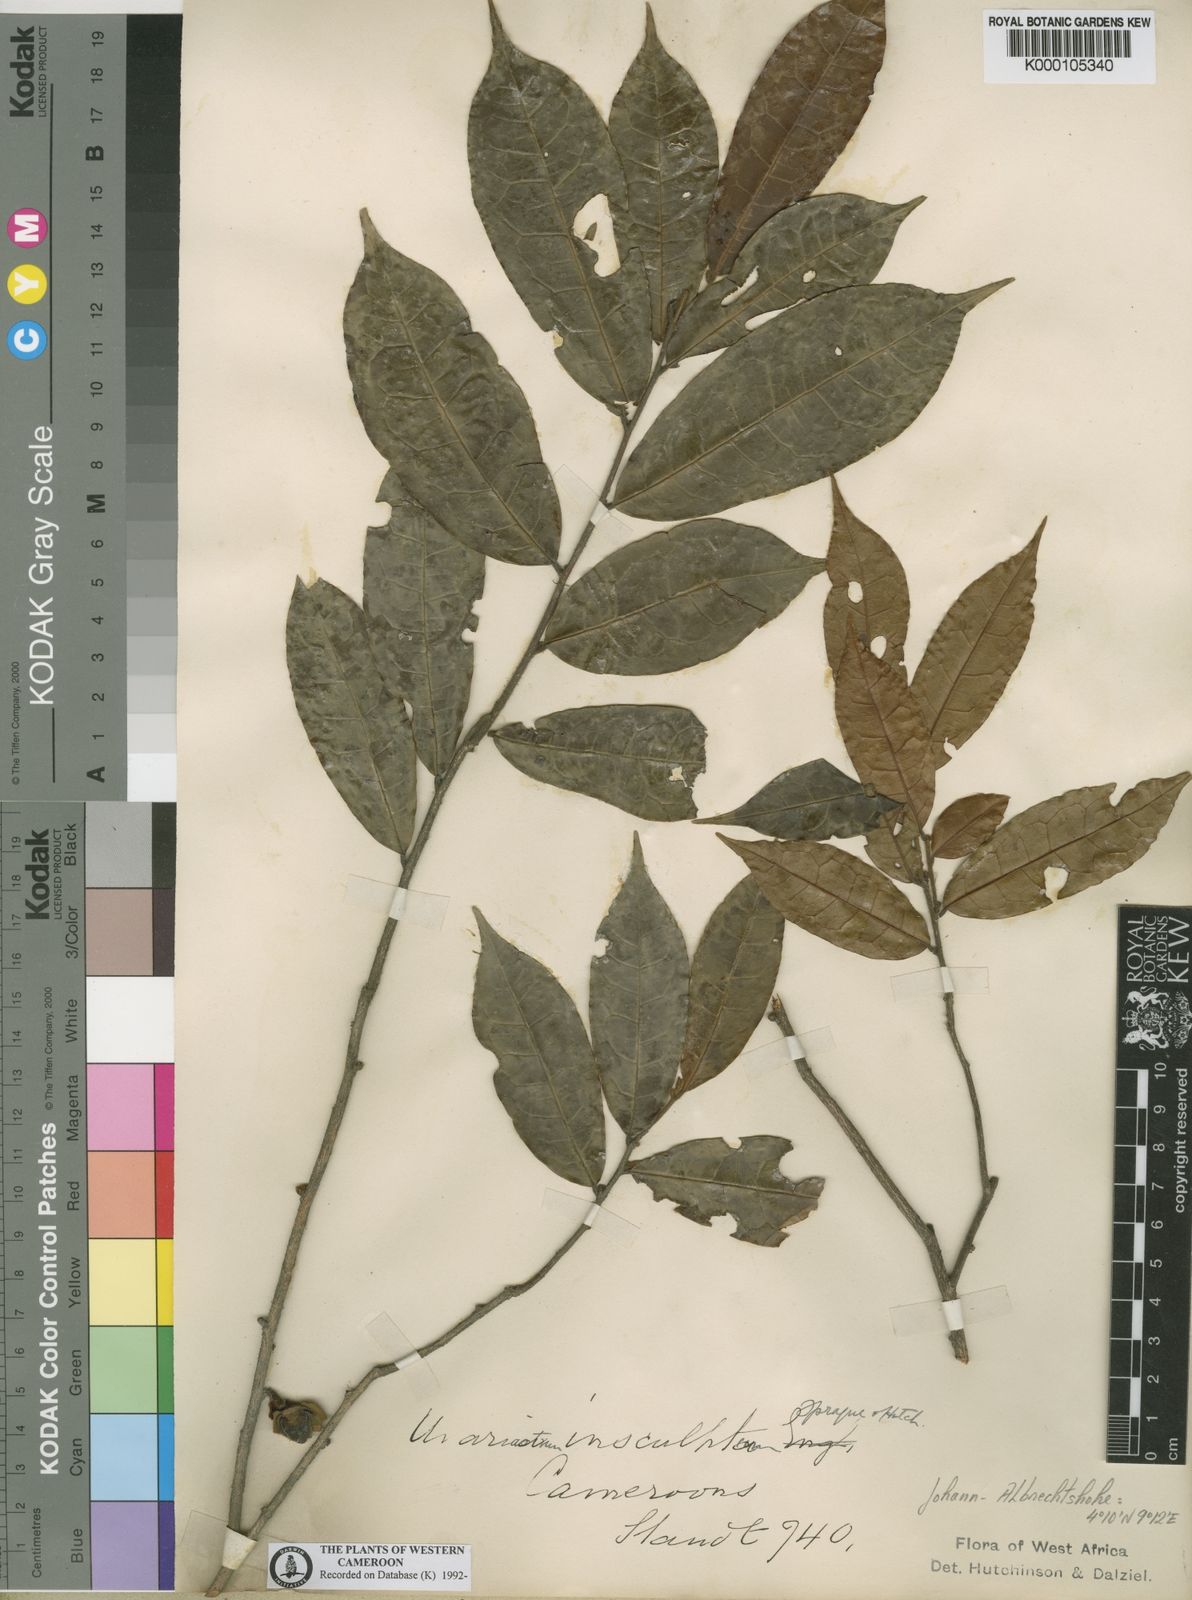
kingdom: Plantae
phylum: Tracheophyta
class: Magnoliopsida
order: Magnoliales
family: Annonaceae
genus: Uvariastrum
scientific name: Uvariastrum pierreanum
